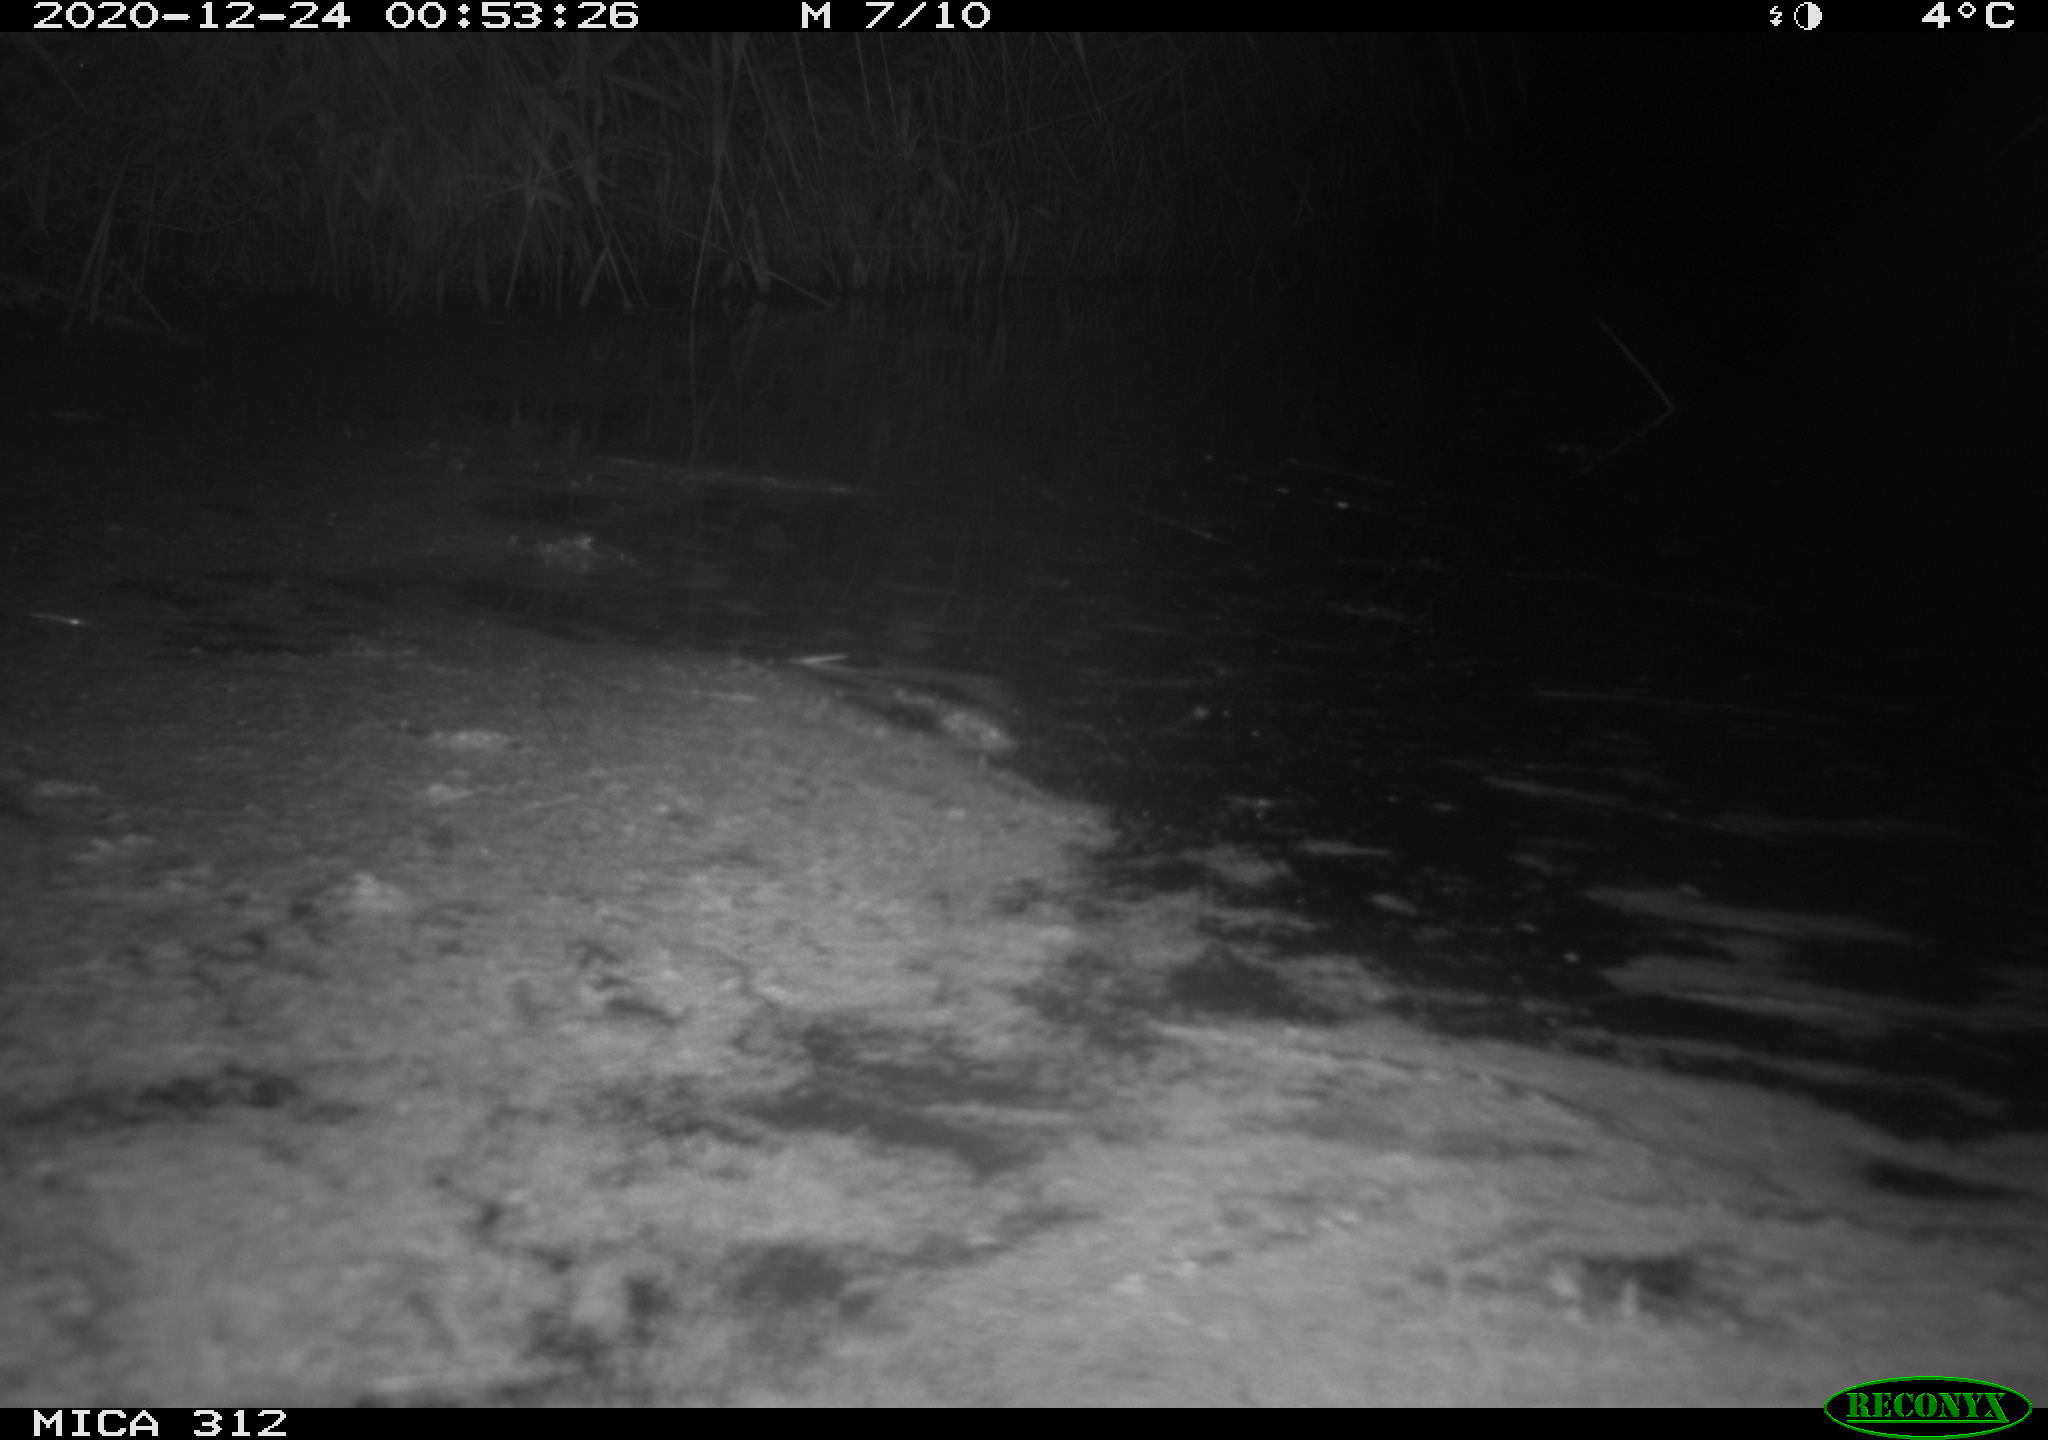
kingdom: Animalia
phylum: Chordata
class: Mammalia
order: Rodentia
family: Cricetidae
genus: Ondatra
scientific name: Ondatra zibethicus
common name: Muskrat
